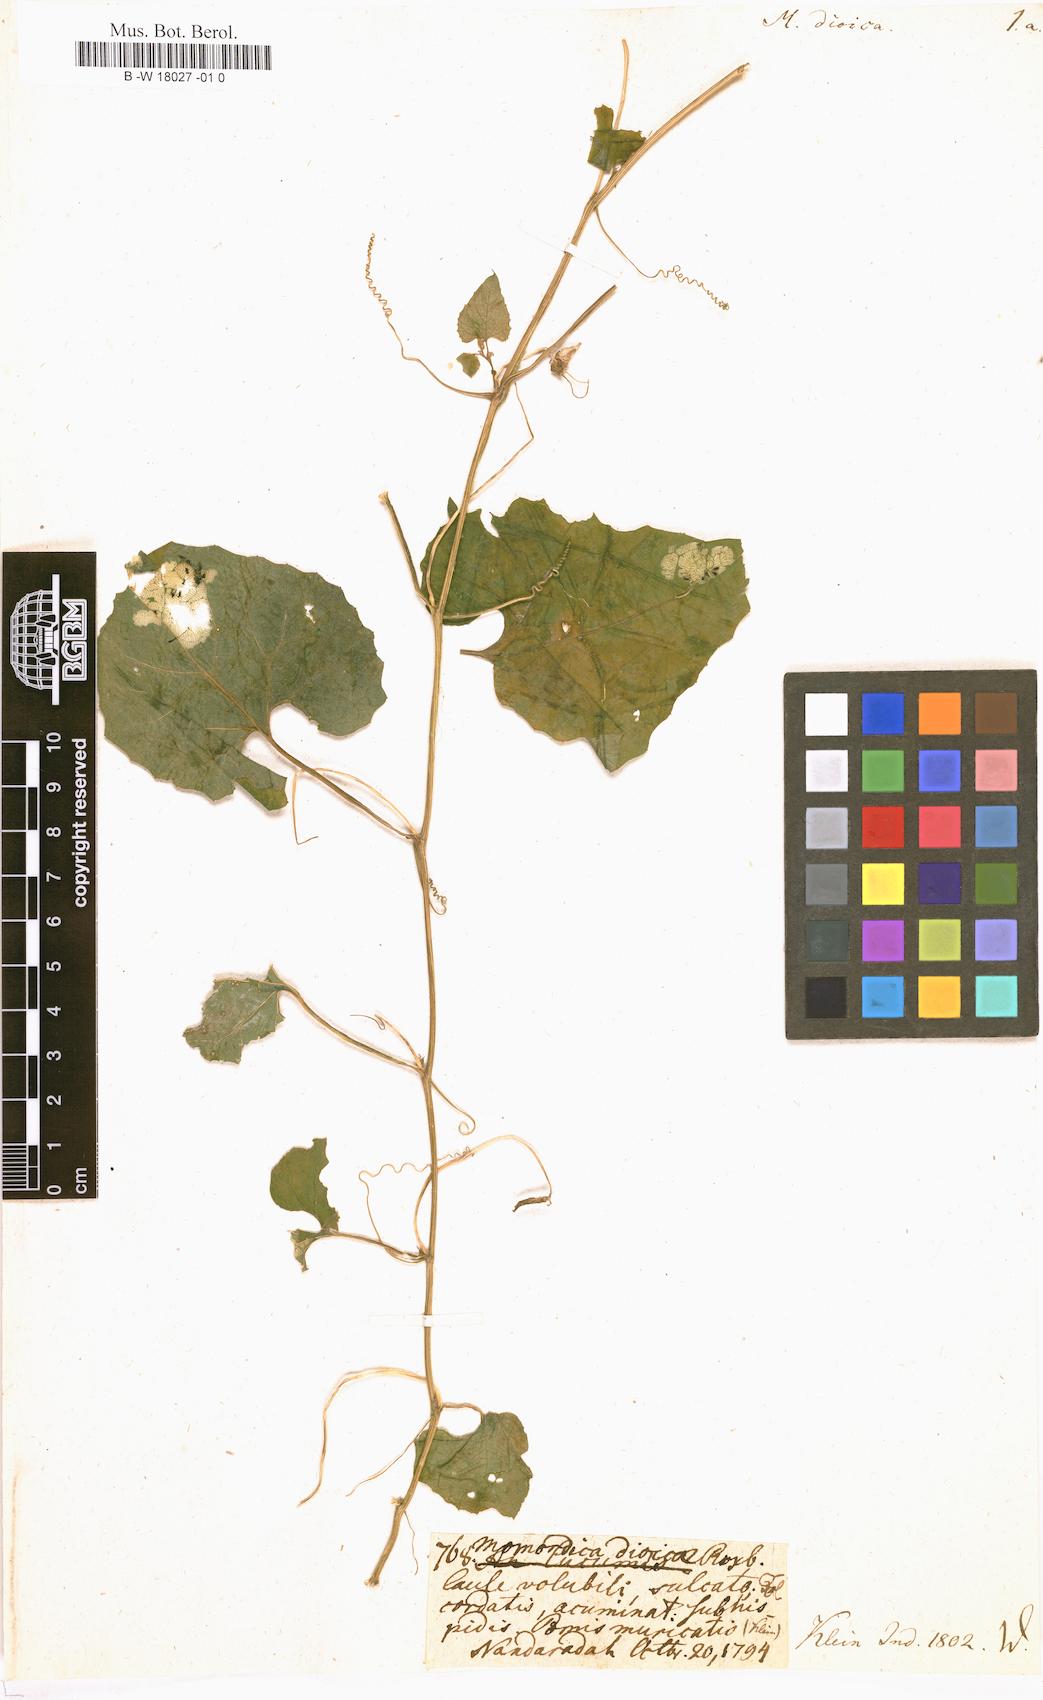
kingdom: Plantae
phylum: Tracheophyta
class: Magnoliopsida
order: Cucurbitales
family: Cucurbitaceae
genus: Momordica
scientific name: Momordica dioica
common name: Spine gourd
